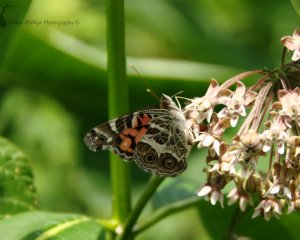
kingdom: Animalia
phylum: Arthropoda
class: Insecta
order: Lepidoptera
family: Nymphalidae
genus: Vanessa
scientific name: Vanessa virginiensis
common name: American Lady
